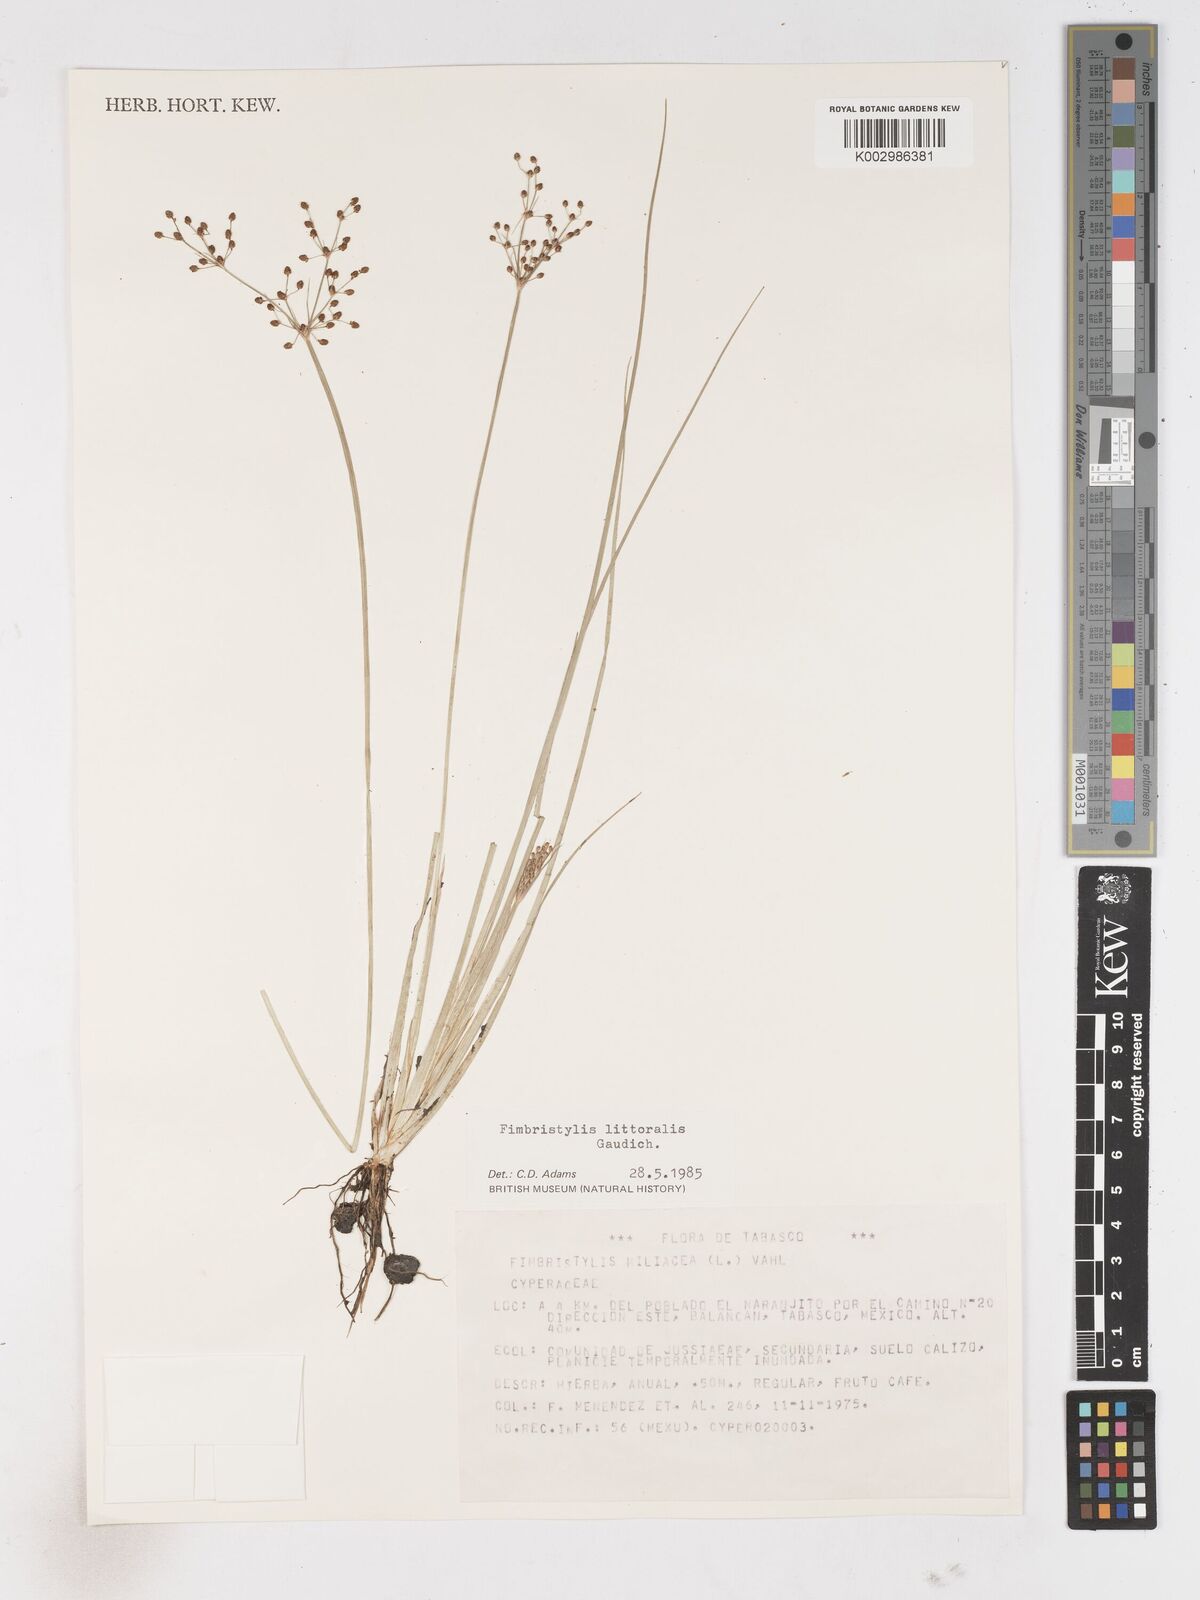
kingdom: Plantae
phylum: Tracheophyta
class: Liliopsida
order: Poales
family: Cyperaceae
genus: Fimbristylis
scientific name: Fimbristylis littoralis
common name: Fimbry
